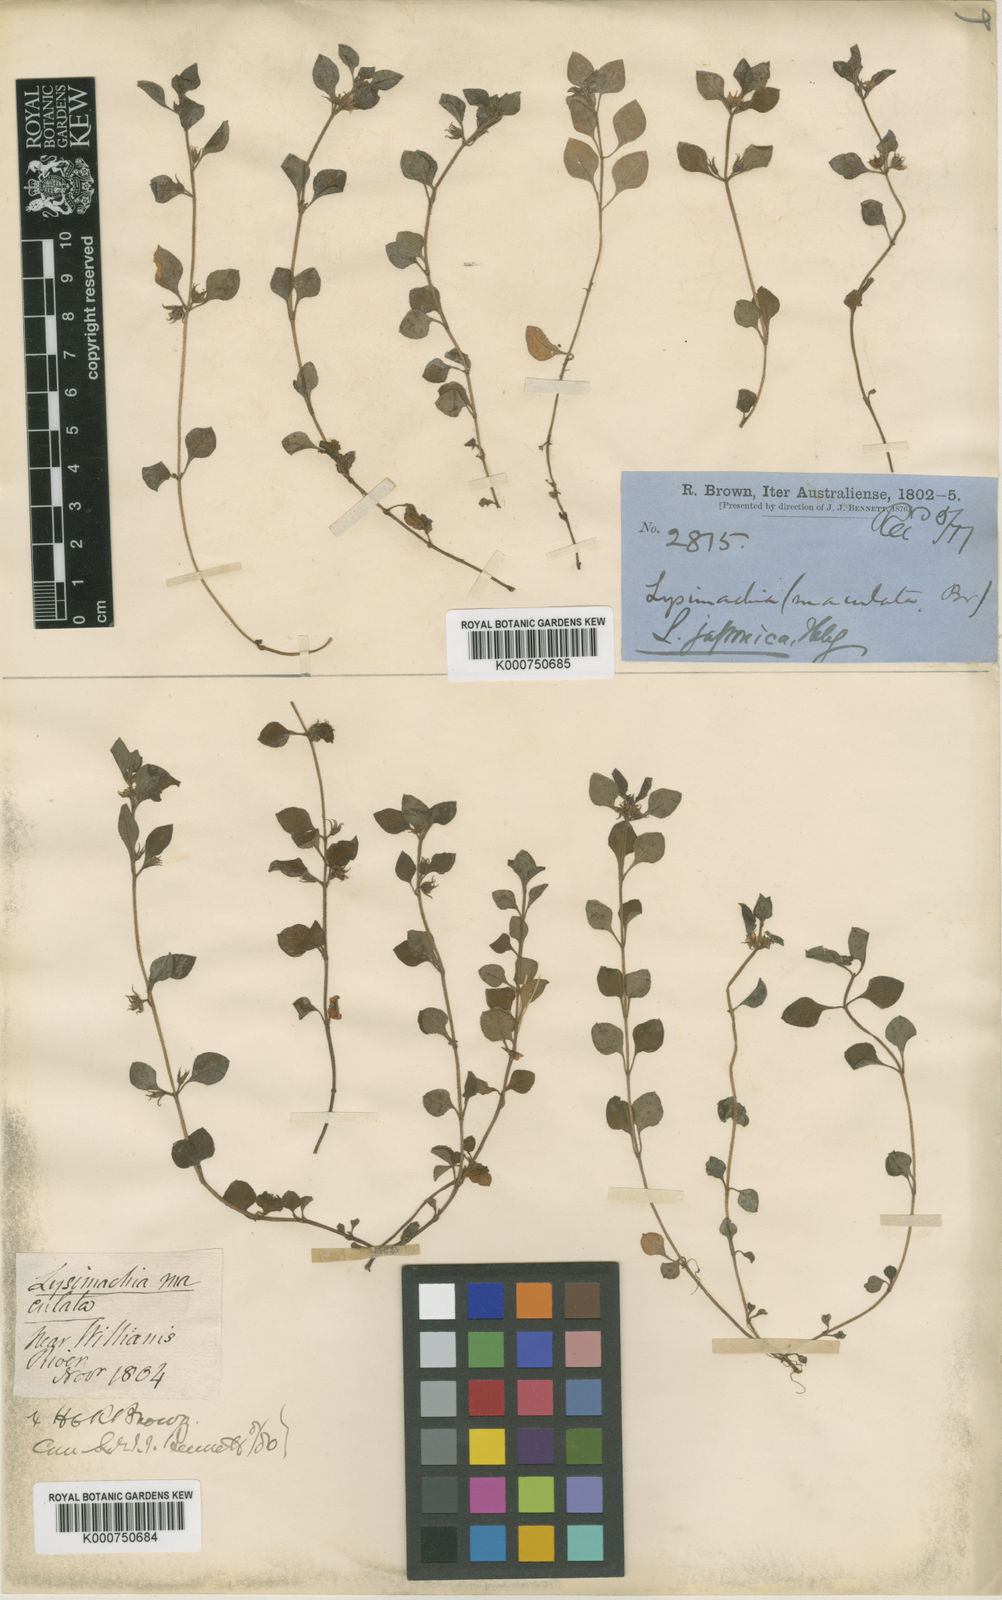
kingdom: Plantae
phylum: Tracheophyta
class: Magnoliopsida
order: Ericales
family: Primulaceae
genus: Lysimachia
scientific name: Lysimachia japonica
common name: Japanese yellow loosestrife
